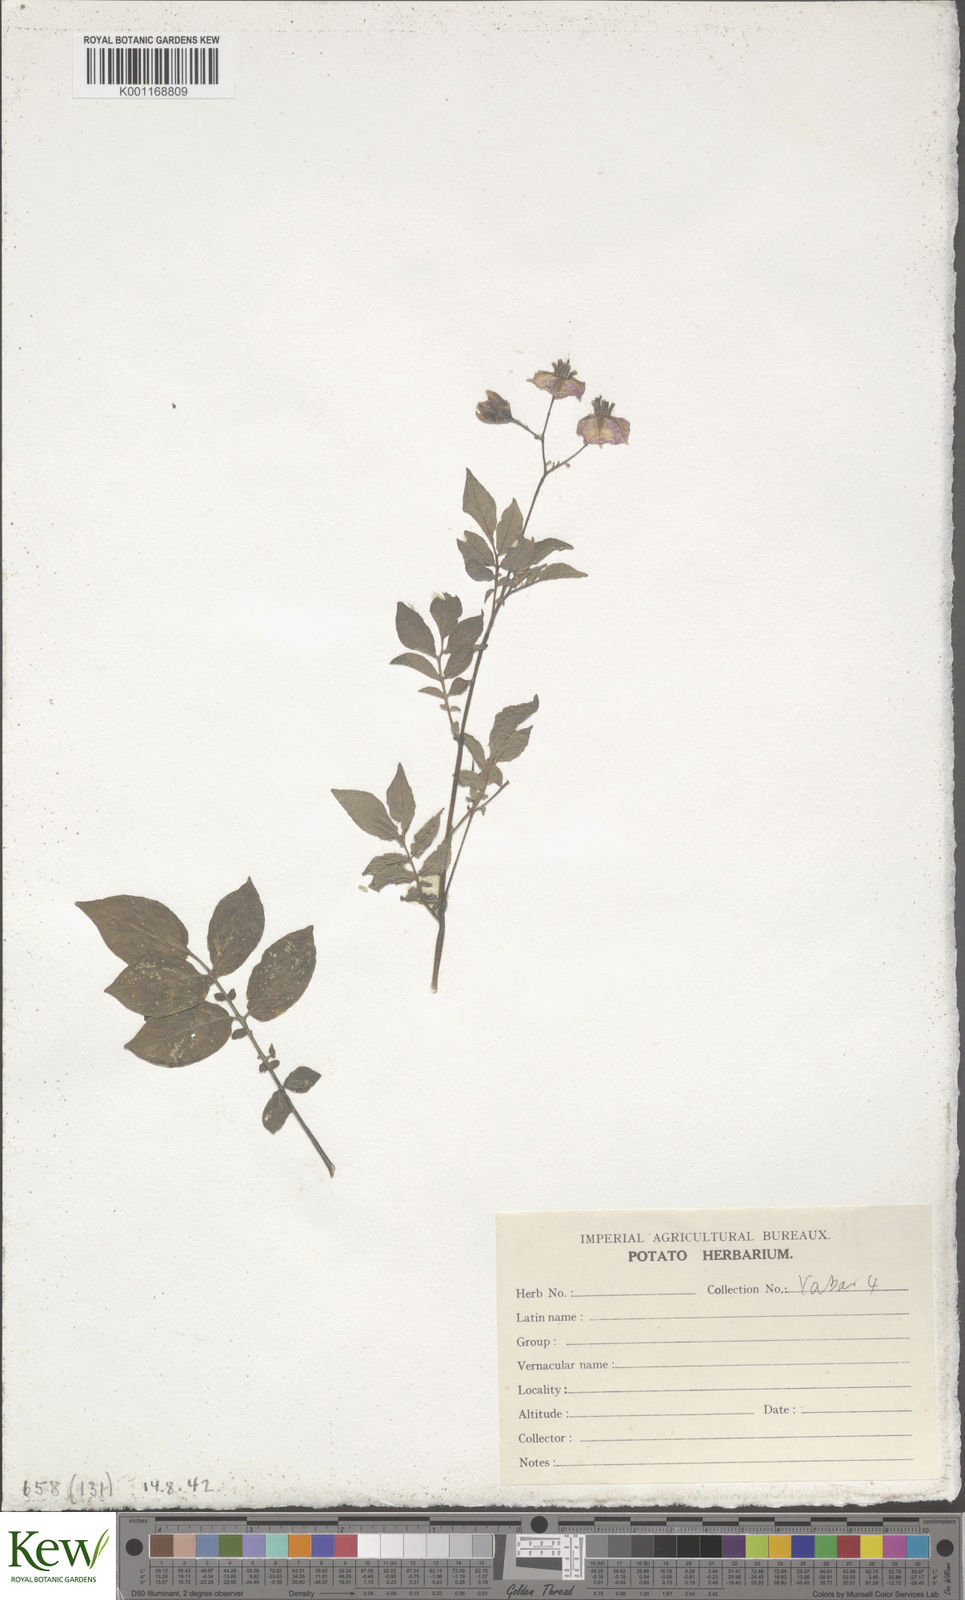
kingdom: Plantae
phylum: Tracheophyta
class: Magnoliopsida
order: Solanales
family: Solanaceae
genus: Solanum
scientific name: Solanum chaucha
